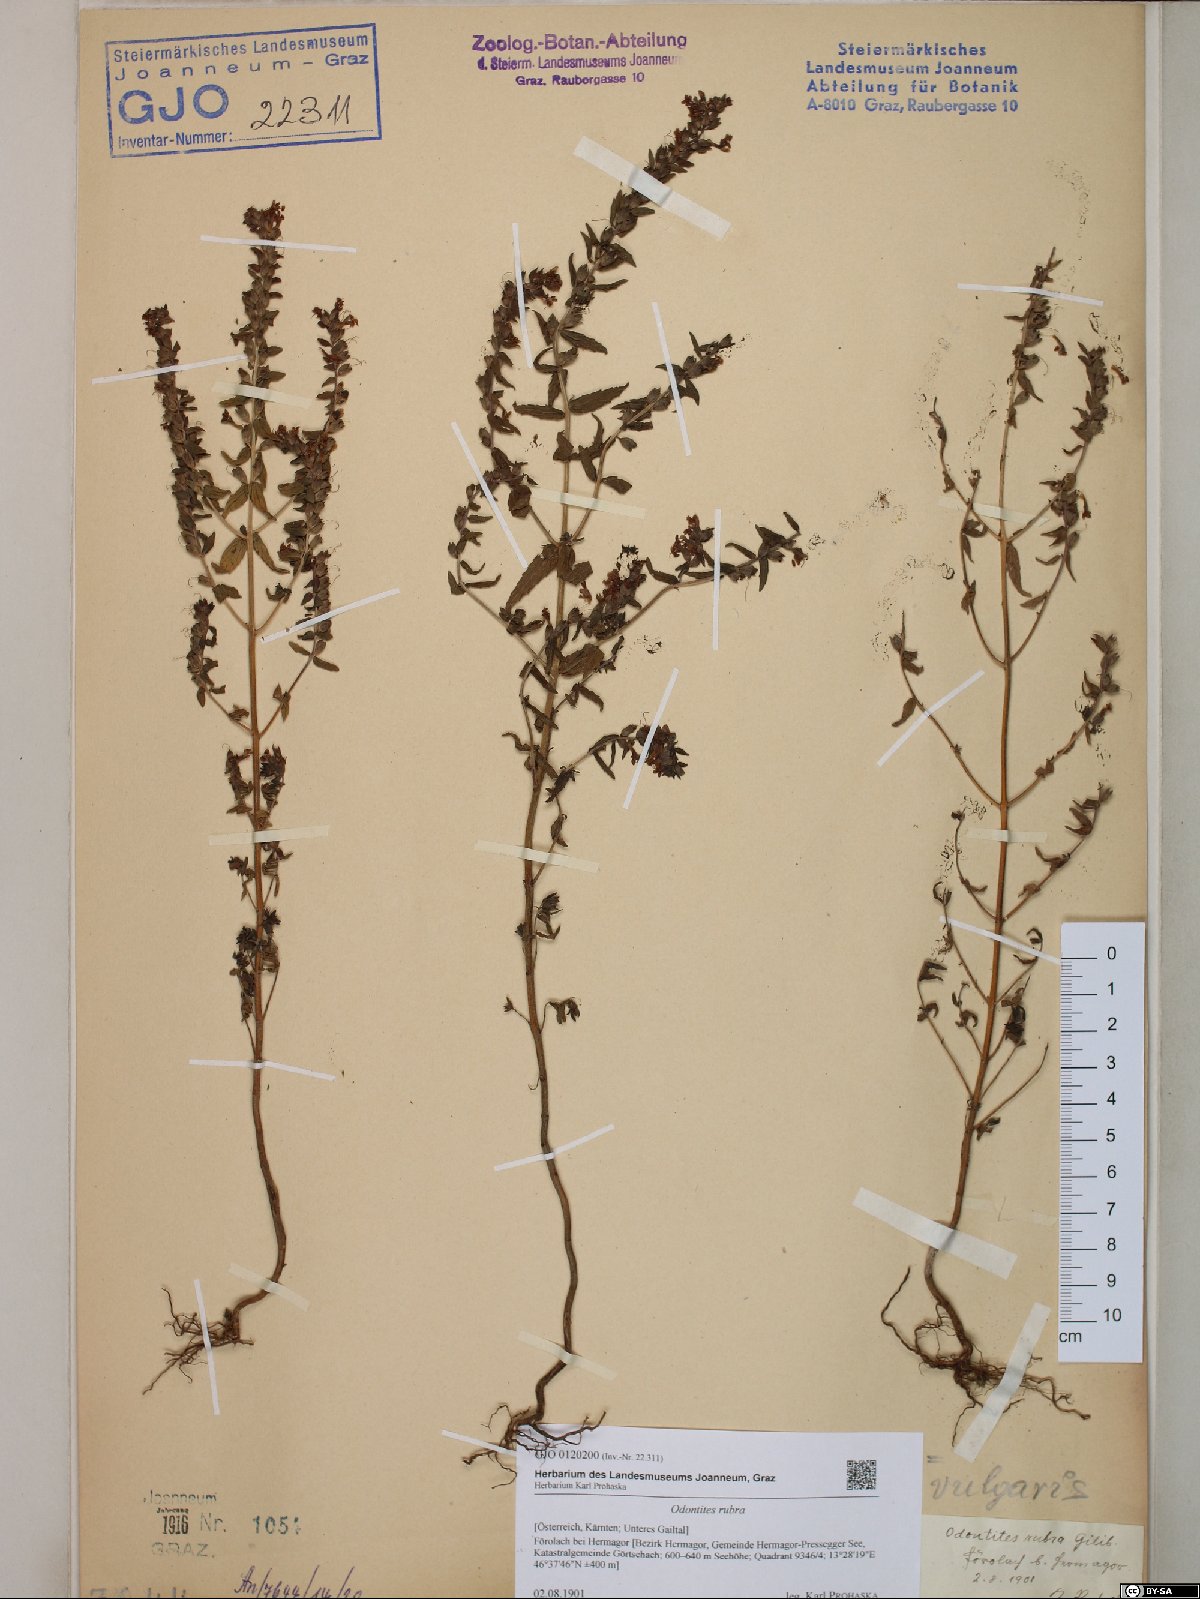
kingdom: Plantae
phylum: Tracheophyta
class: Magnoliopsida
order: Lamiales
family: Orobanchaceae
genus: Odontites
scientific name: Odontites vulgaris
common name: Broomrape
